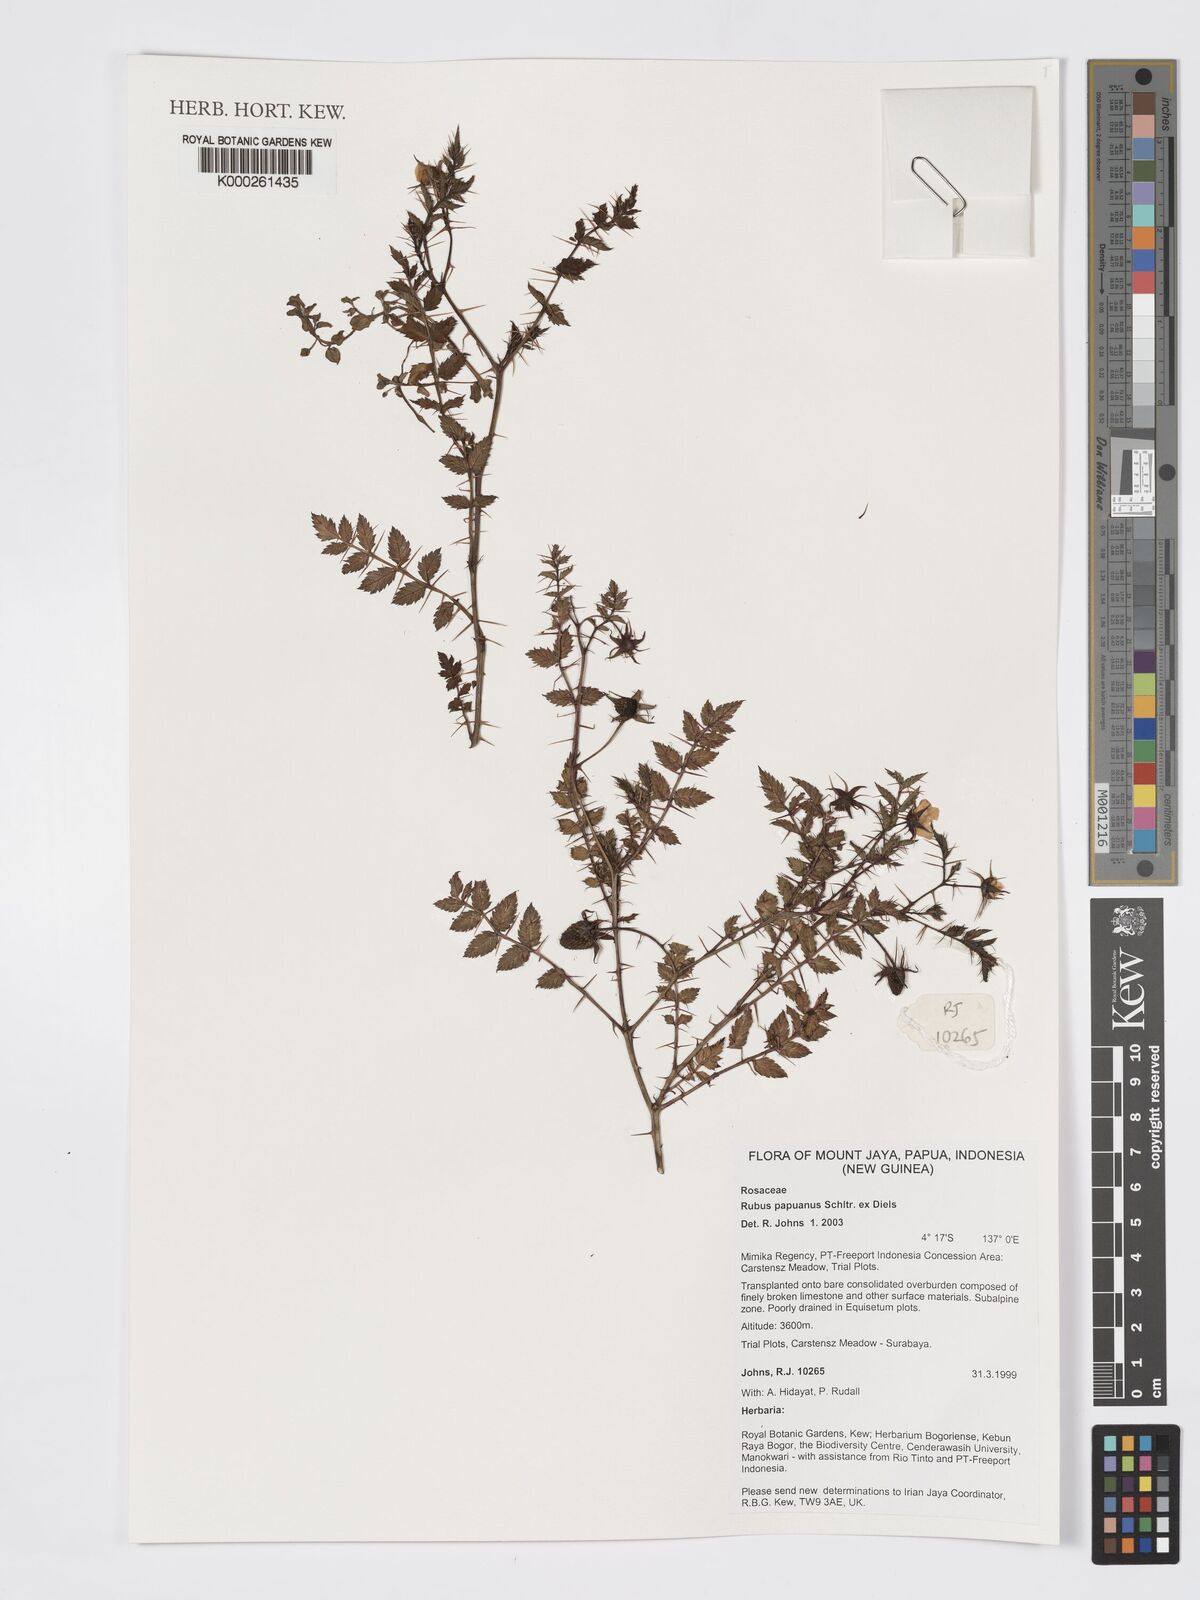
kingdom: Plantae
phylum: Tracheophyta
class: Magnoliopsida
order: Rosales
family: Rosaceae
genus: Rubus
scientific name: Rubus papuanus
